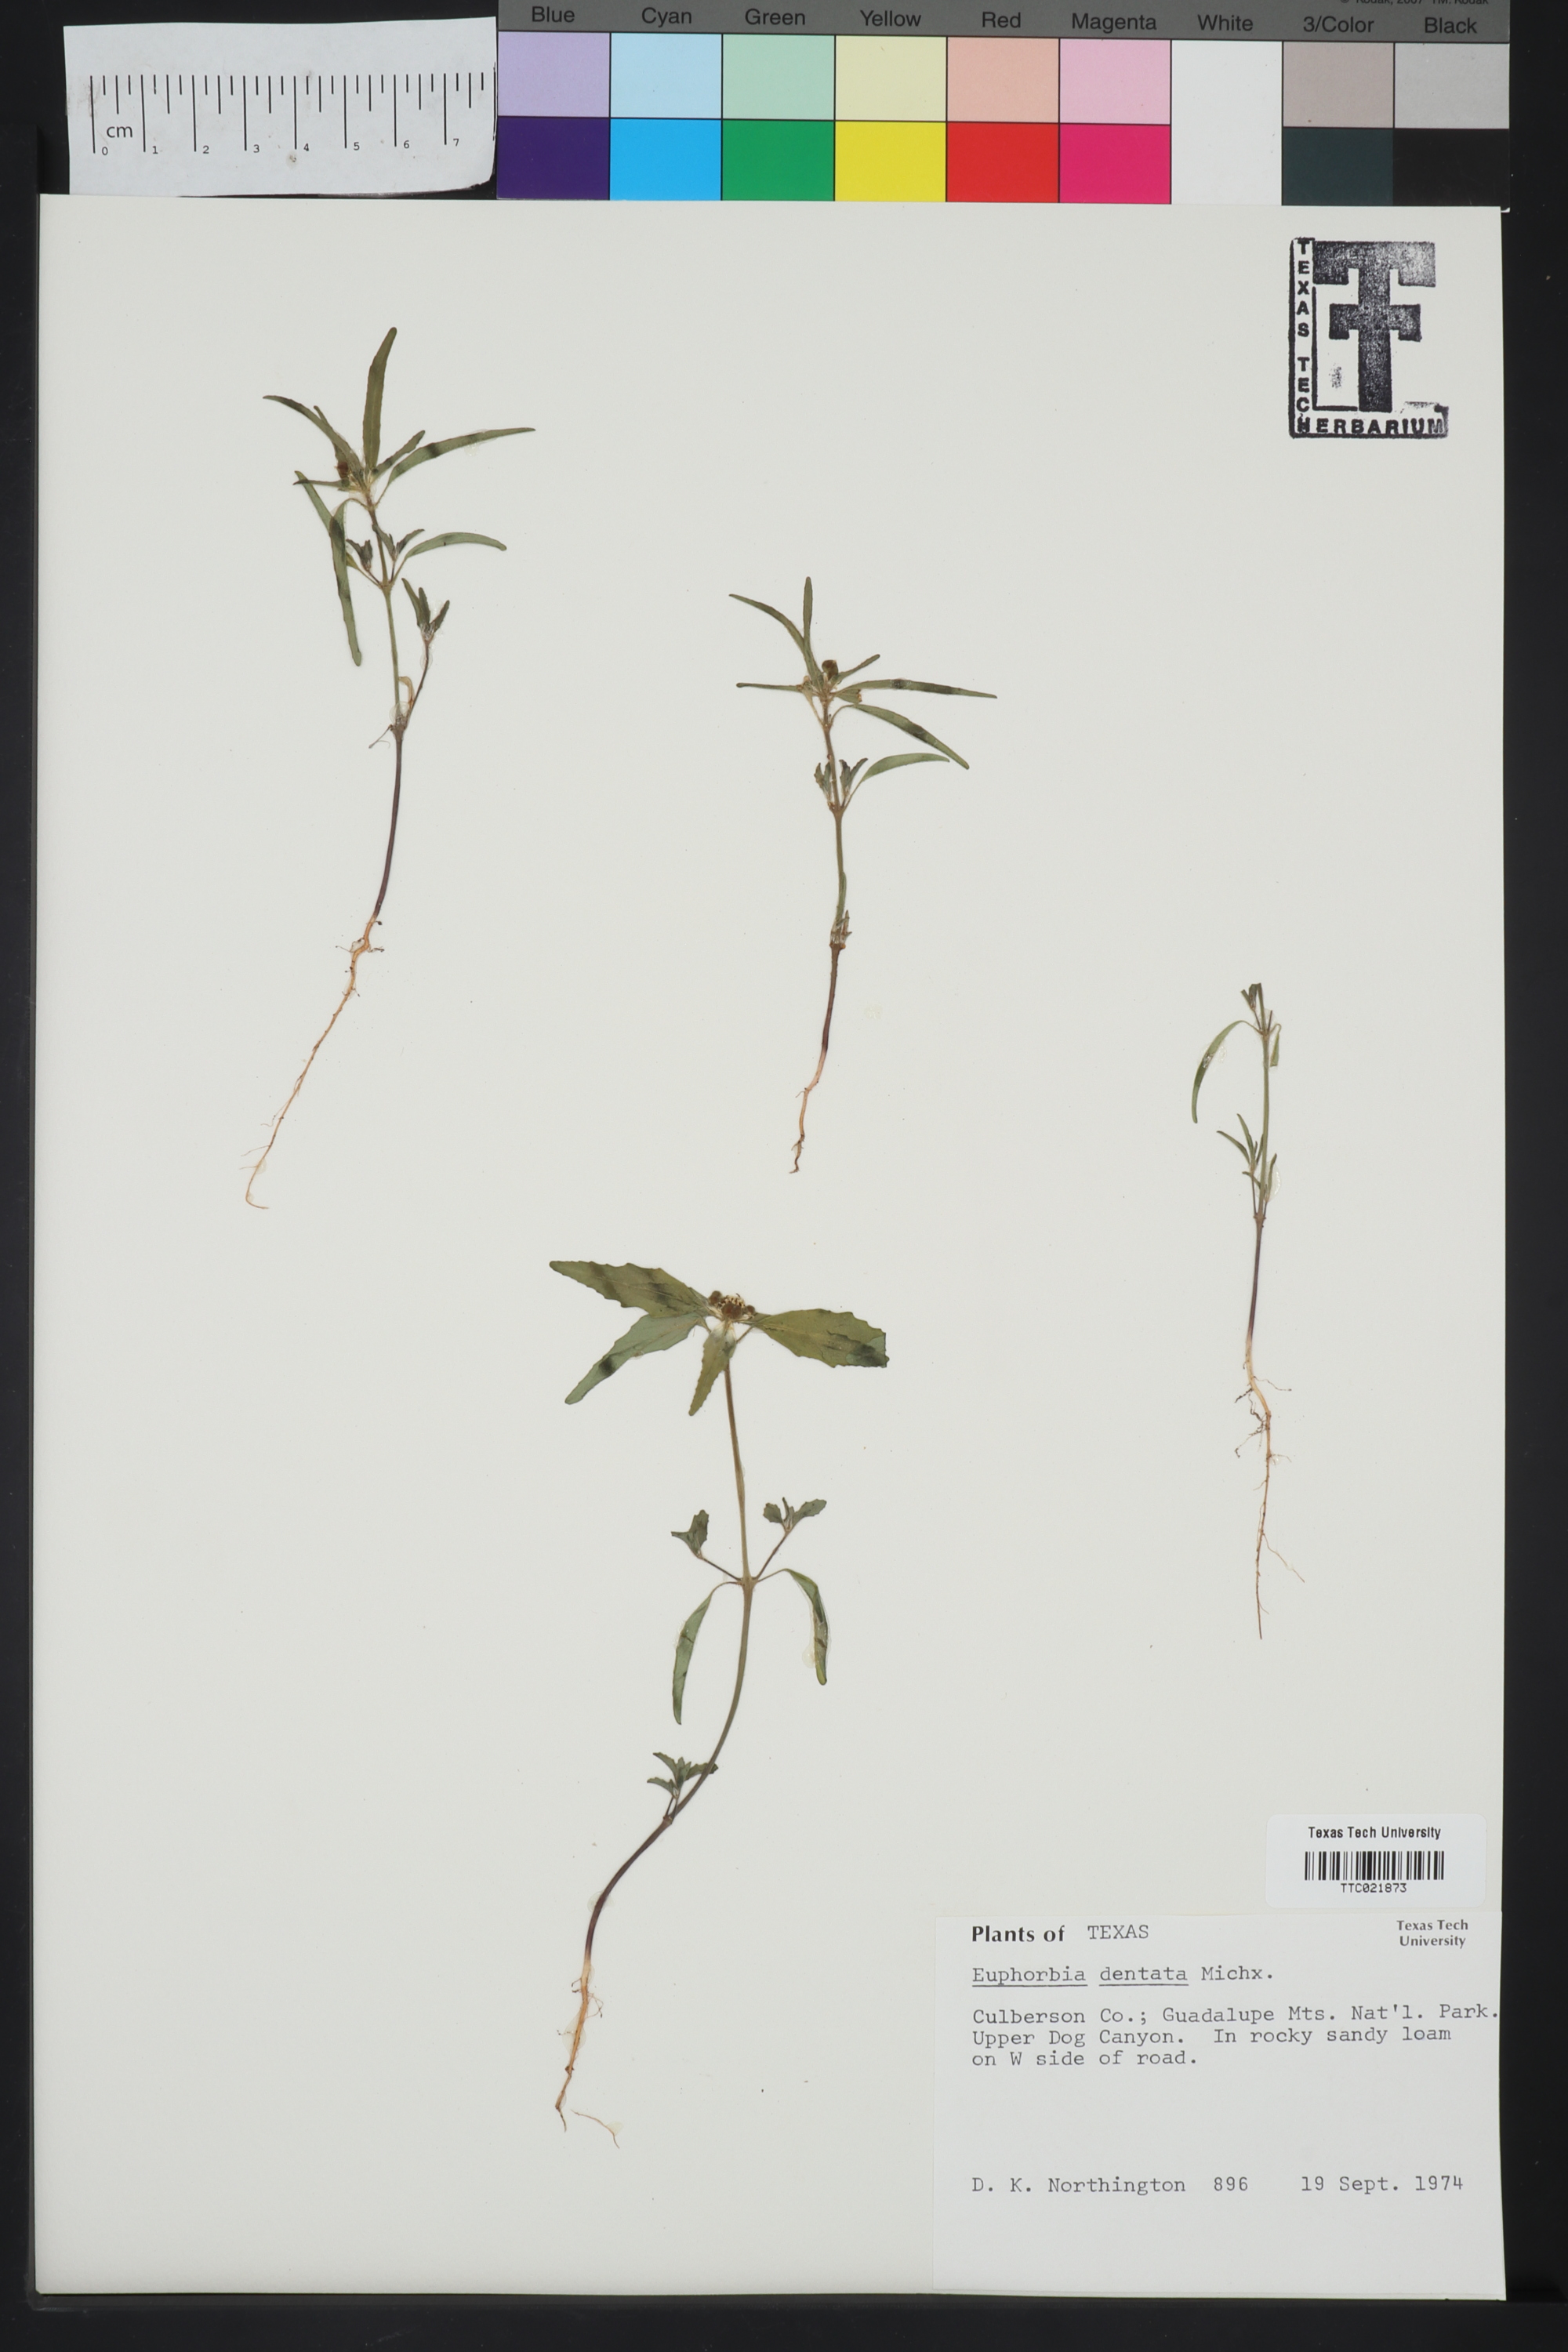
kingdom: Plantae
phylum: Tracheophyta
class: Magnoliopsida
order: Malpighiales
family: Euphorbiaceae
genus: Euphorbia
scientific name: Euphorbia dentata
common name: Dentate spurge
